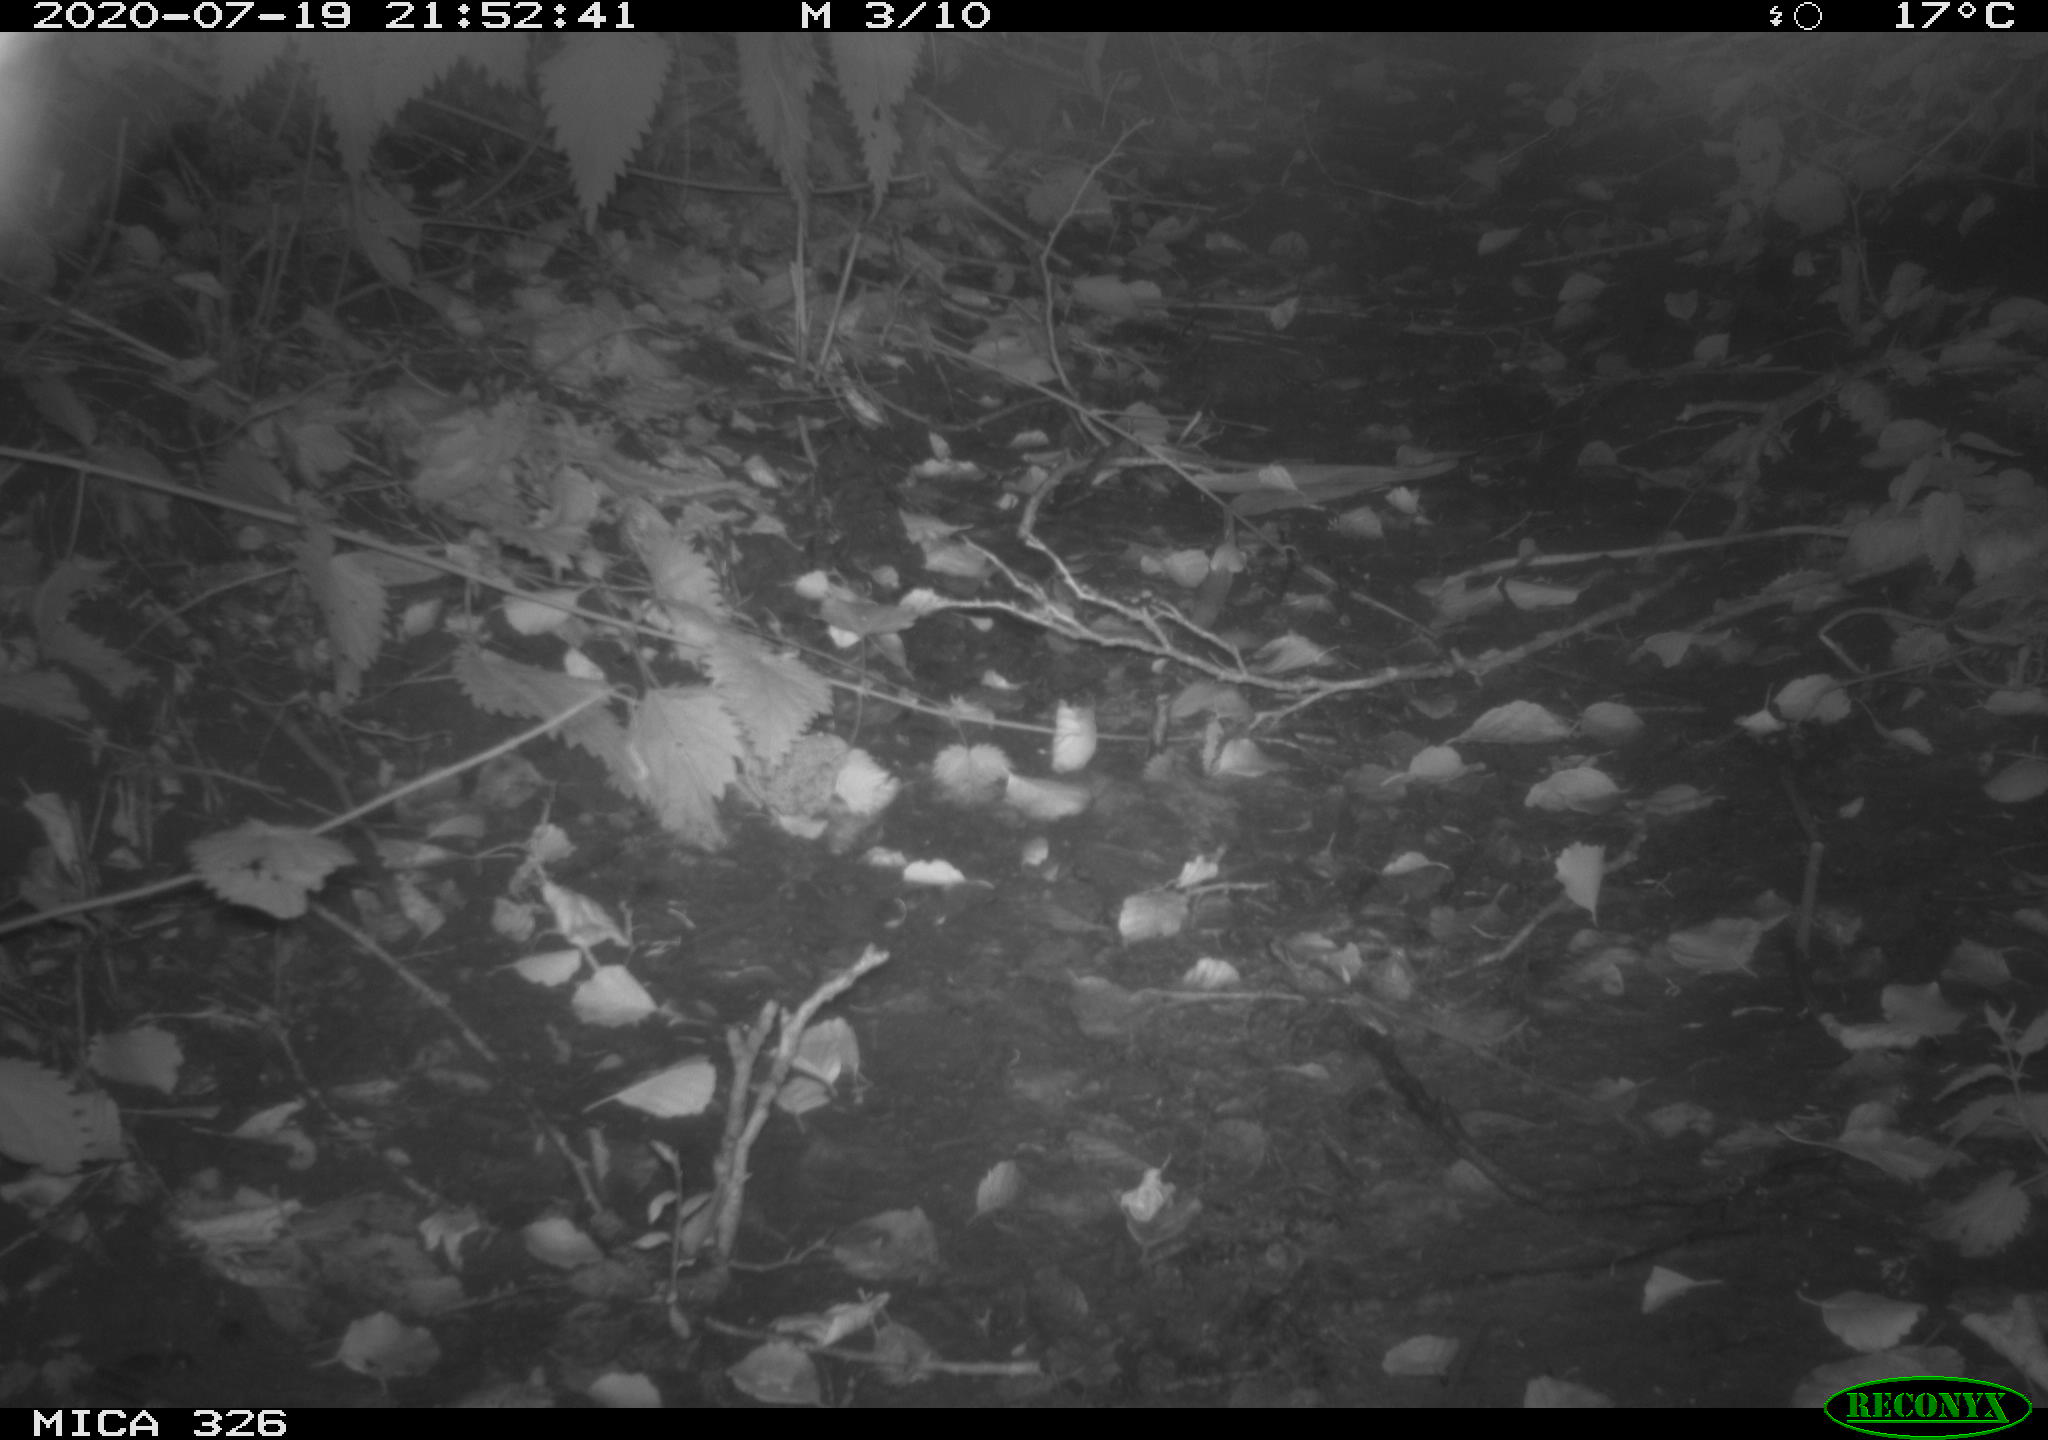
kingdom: Animalia
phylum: Chordata
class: Mammalia
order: Rodentia
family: Muridae
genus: Rattus
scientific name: Rattus norvegicus
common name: Brown rat
